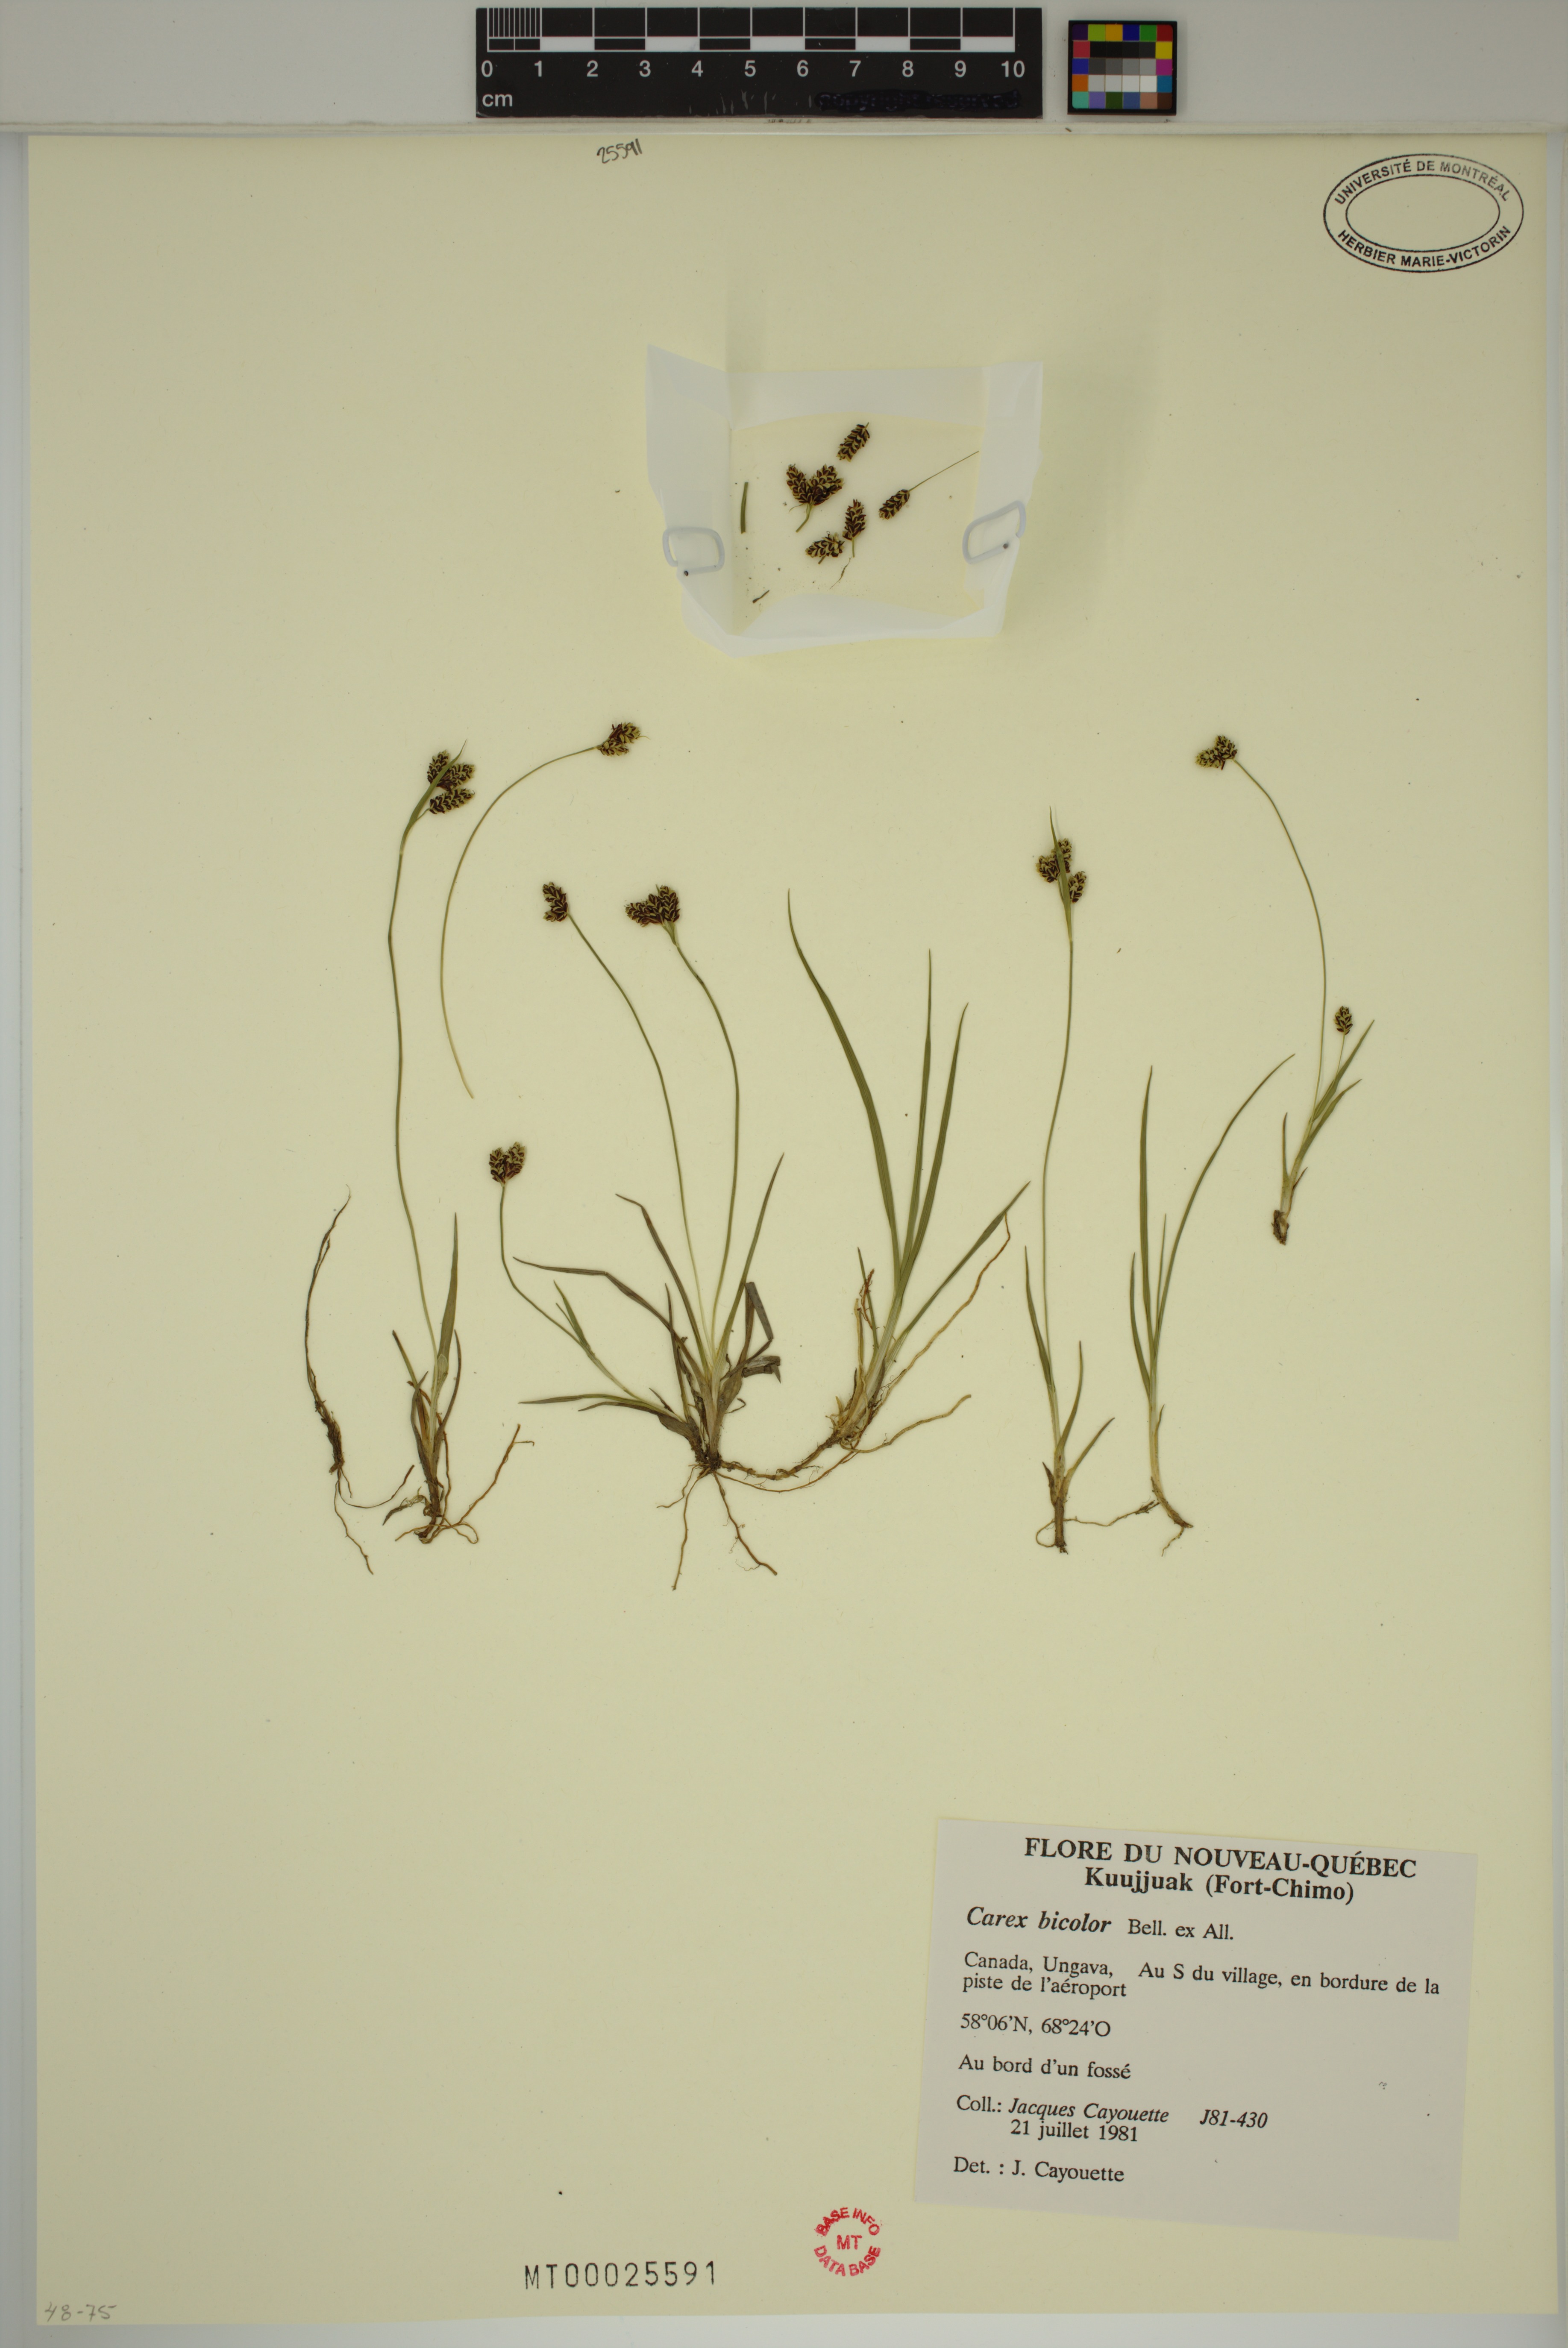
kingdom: Plantae
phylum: Tracheophyta
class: Liliopsida
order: Poales
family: Cyperaceae
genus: Carex
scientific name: Carex bicolor
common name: Bicoloured sedge
